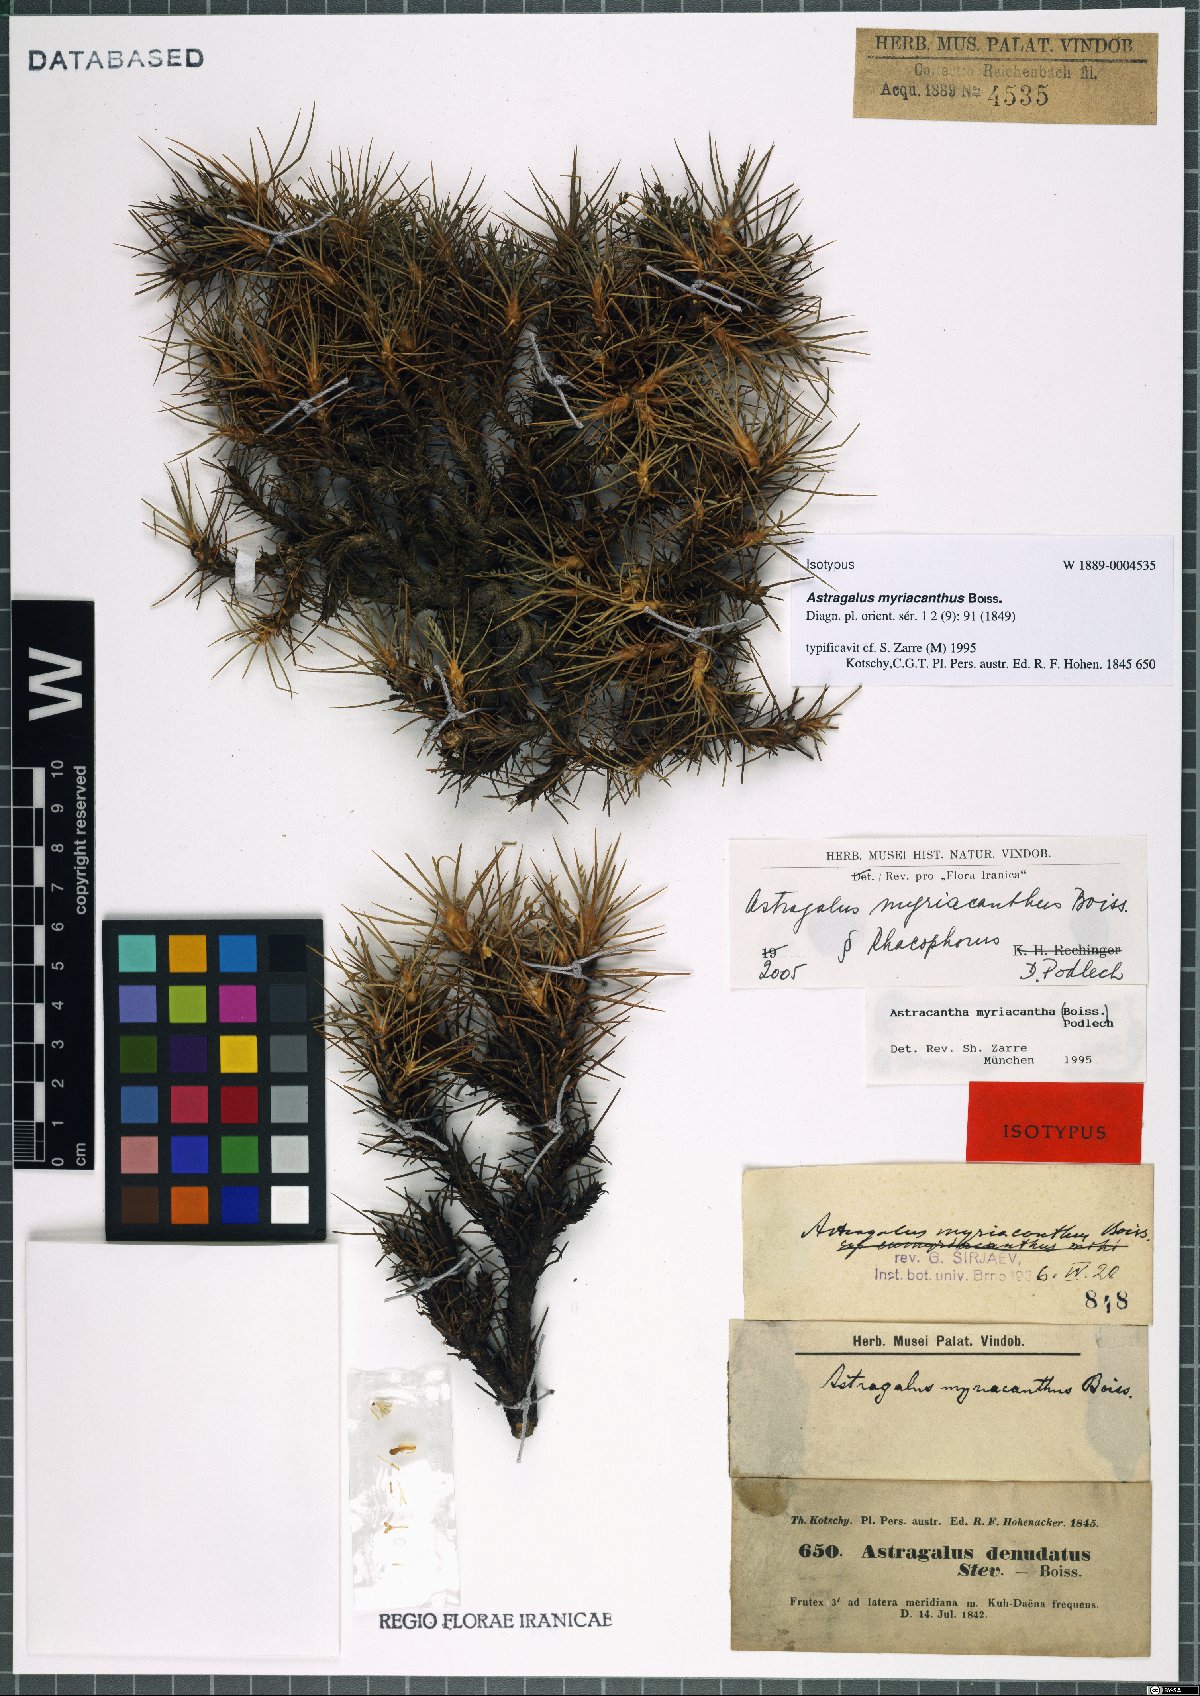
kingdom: Plantae
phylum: Tracheophyta
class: Magnoliopsida
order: Fabales
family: Fabaceae
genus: Astragalus
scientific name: Astragalus myriacanthus
